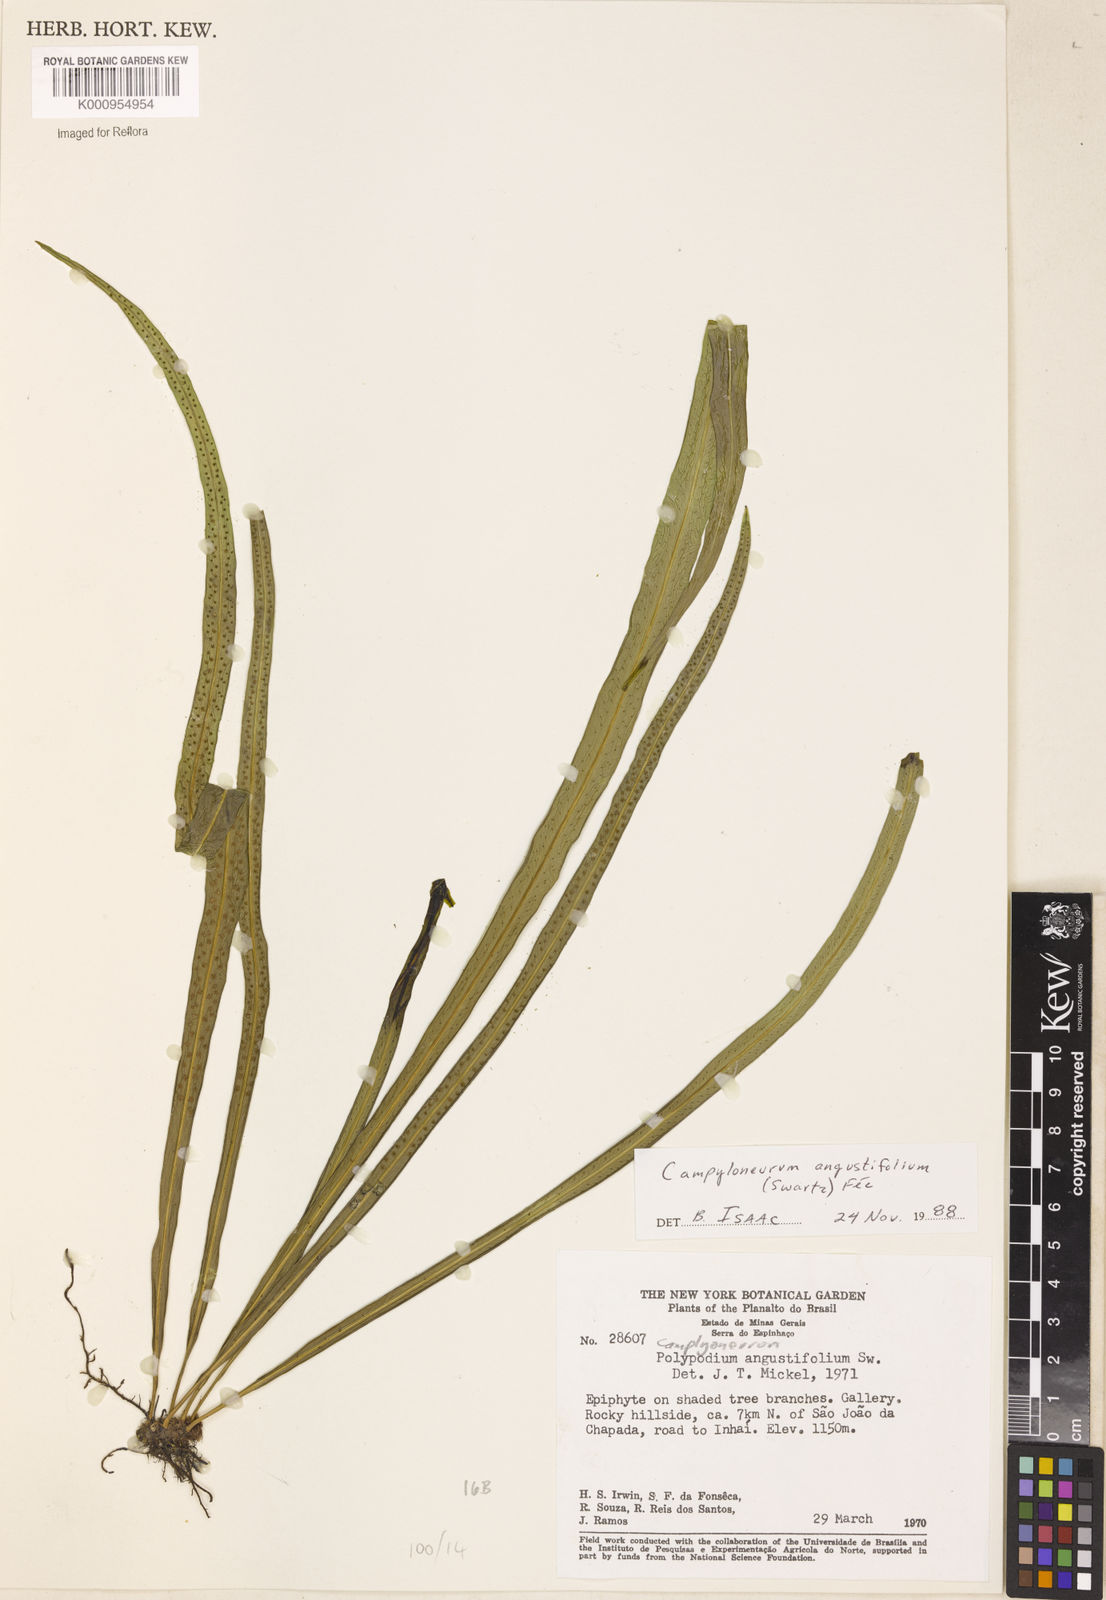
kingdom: Plantae
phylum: Tracheophyta
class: Polypodiopsida
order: Polypodiales
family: Polypodiaceae
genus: Campyloneurum
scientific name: Campyloneurum
